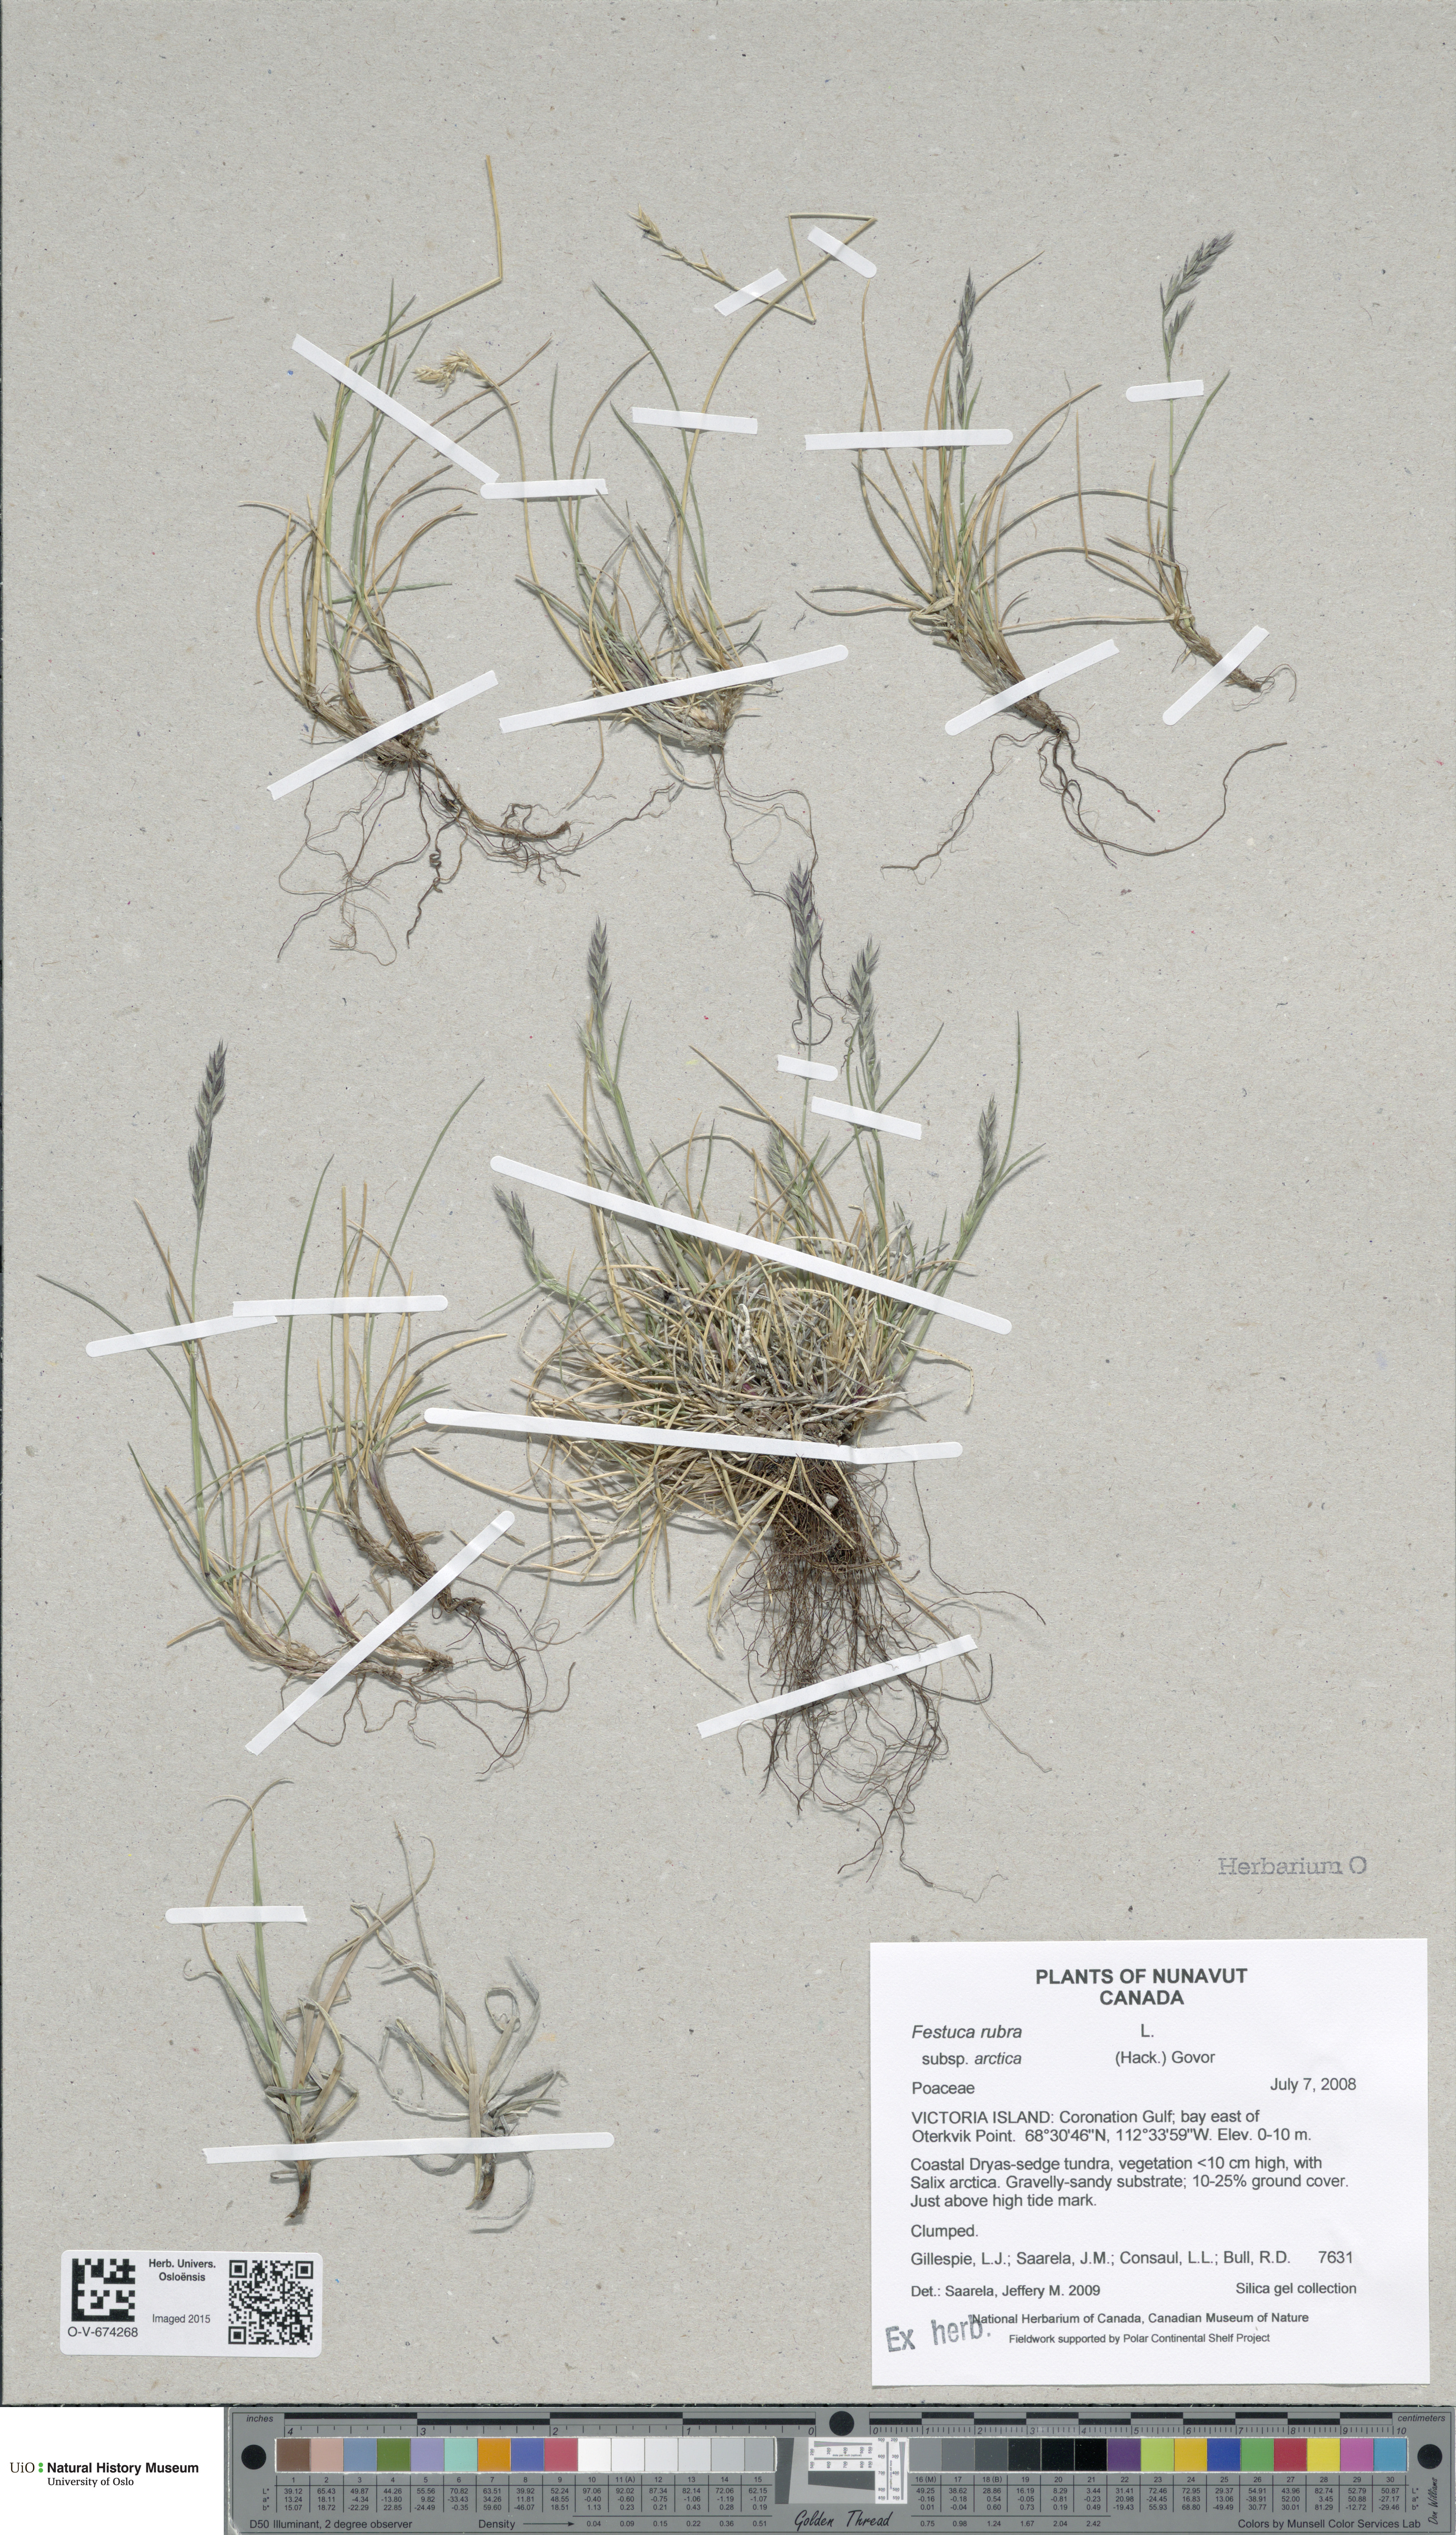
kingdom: Plantae
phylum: Tracheophyta
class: Liliopsida
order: Poales
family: Poaceae
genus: Festuca
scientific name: Festuca richardsonii
